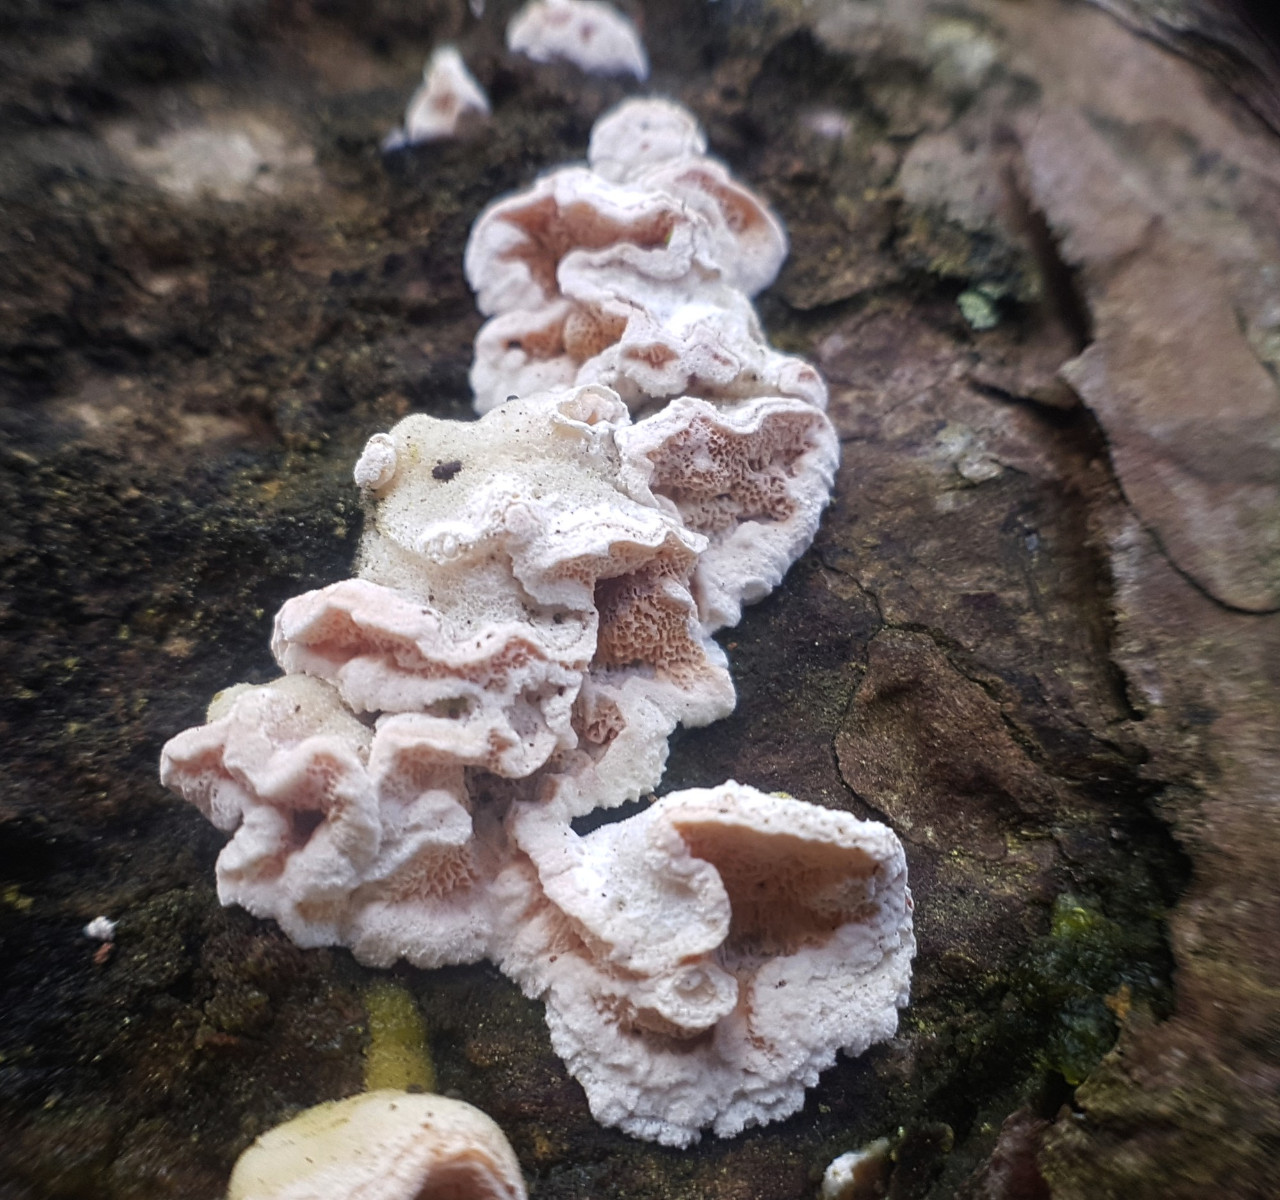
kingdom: Fungi
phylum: Basidiomycota
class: Agaricomycetes
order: Polyporales
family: Incrustoporiaceae
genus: Skeletocutis
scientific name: Skeletocutis amorpha
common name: orange krystalporesvamp
